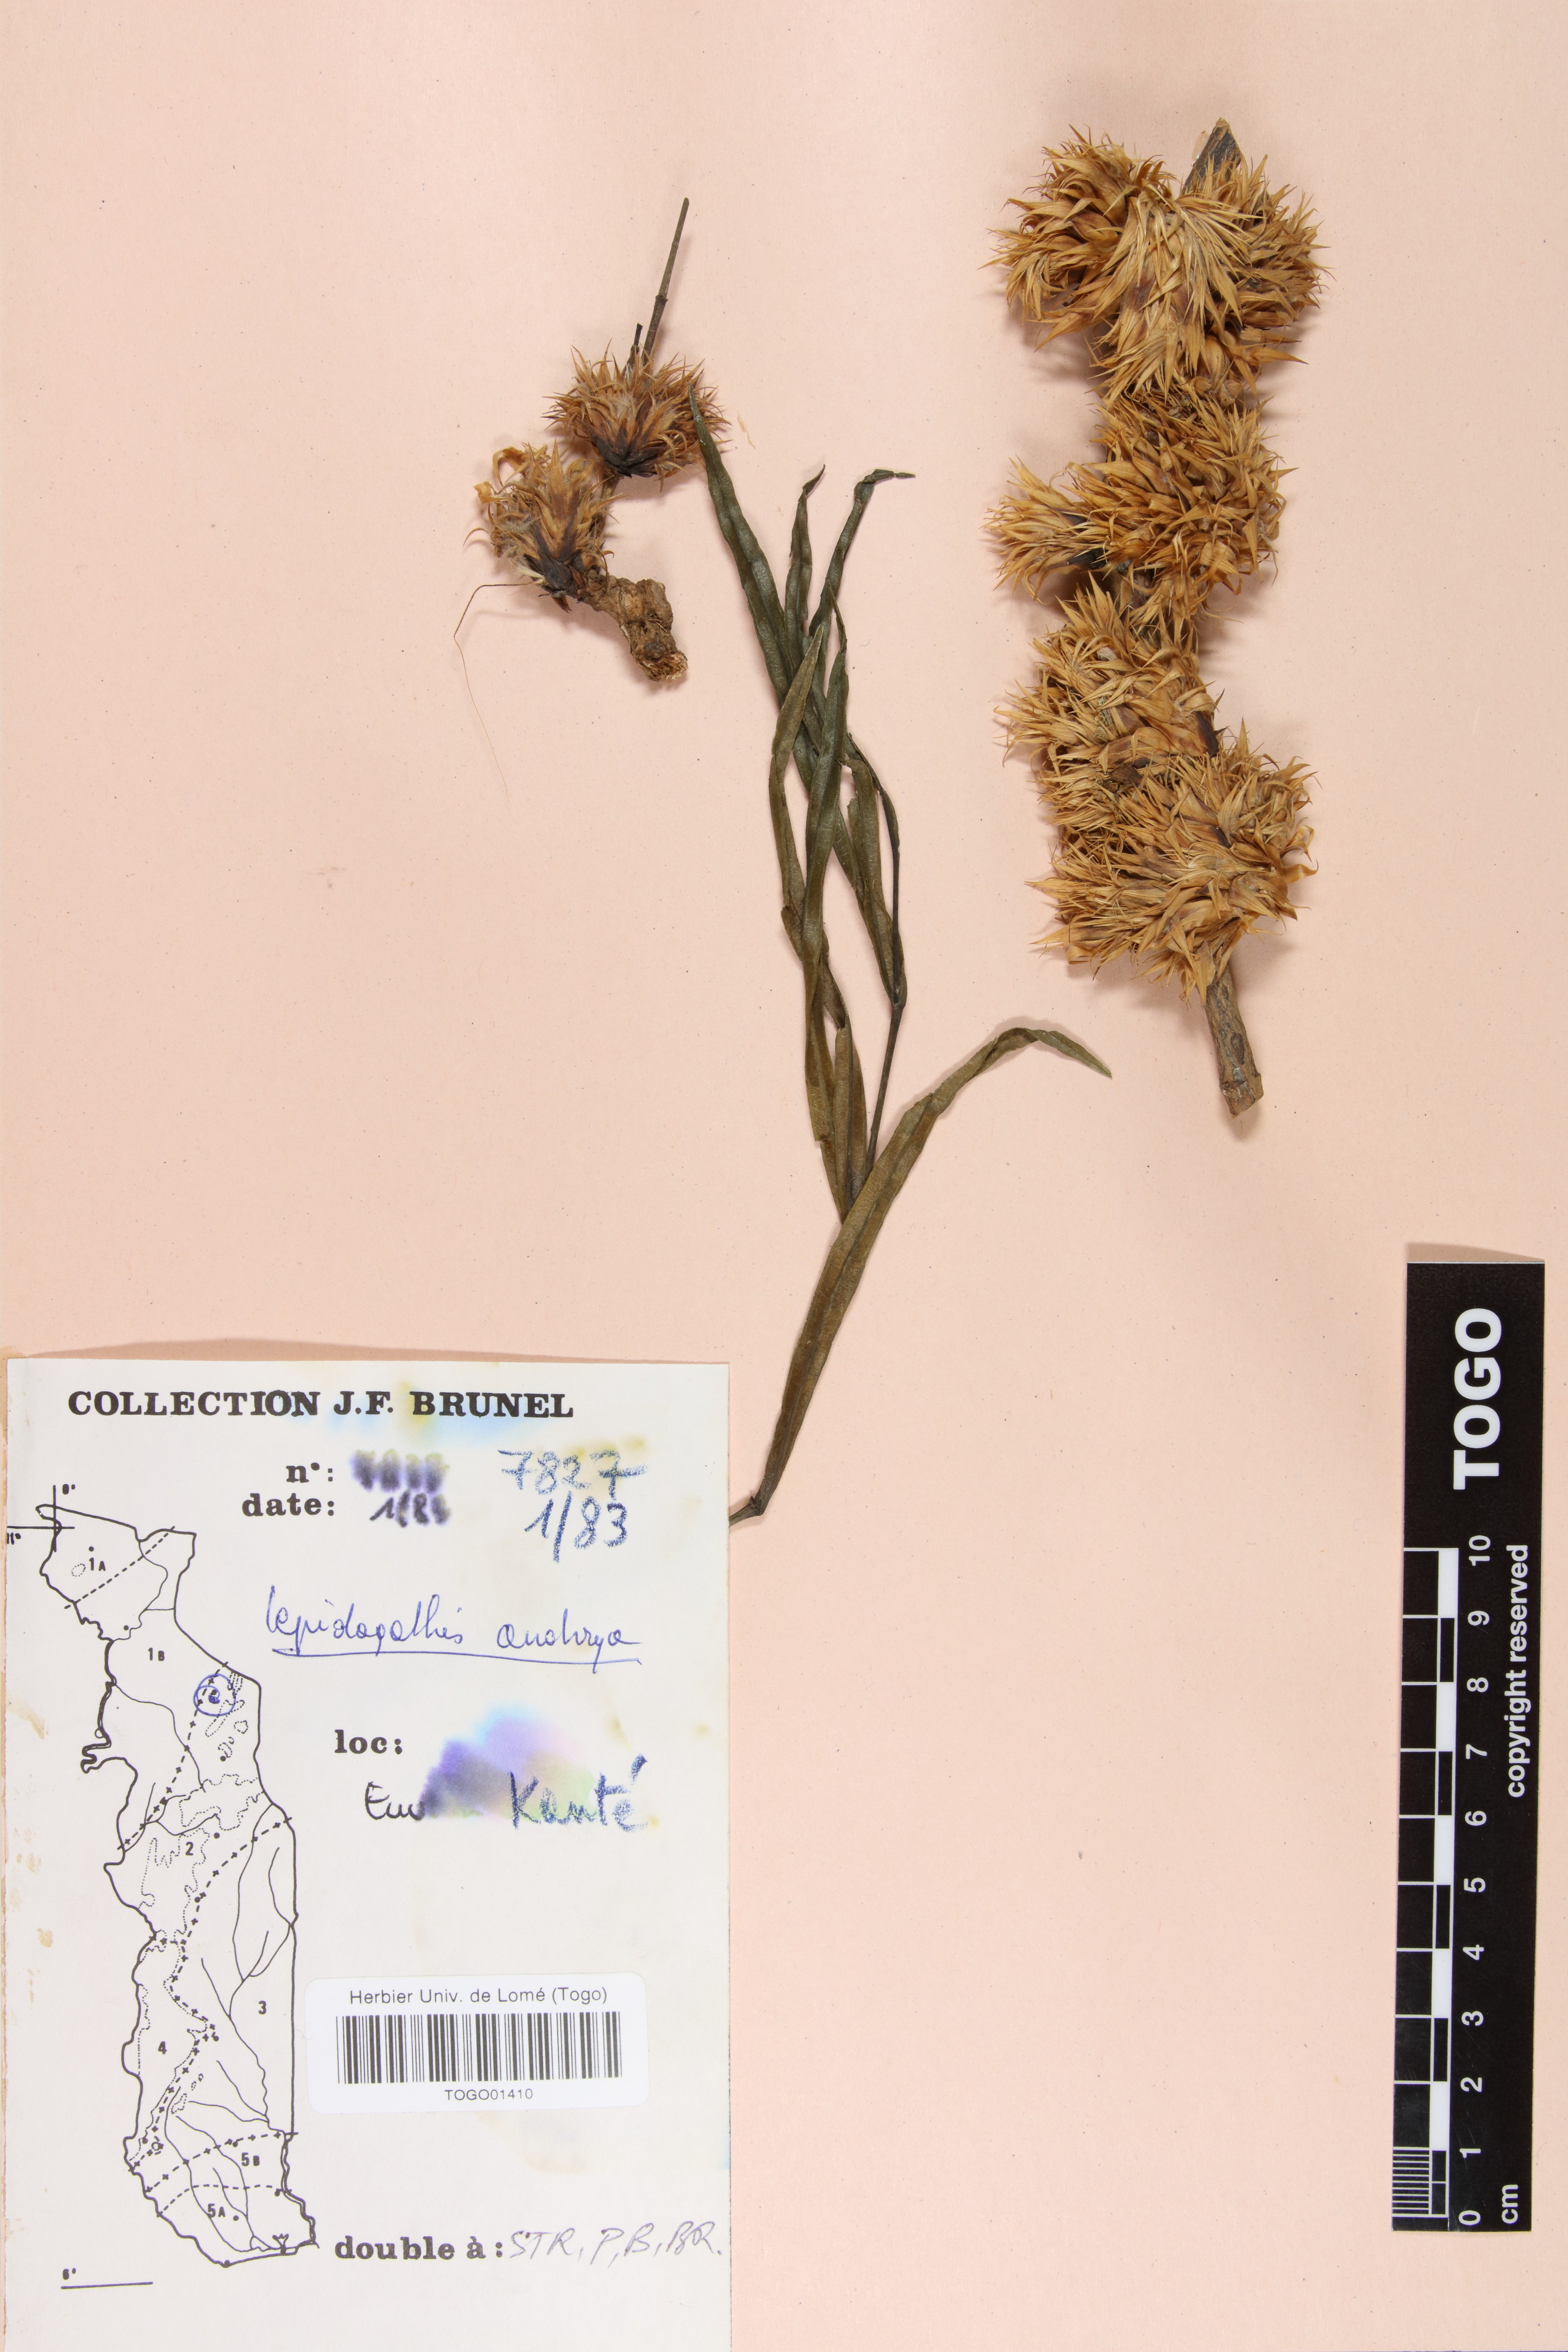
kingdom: Plantae
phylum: Tracheophyta
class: Magnoliopsida
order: Lamiales
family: Acanthaceae
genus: Lepidagathis
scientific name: Lepidagathis anobrya
